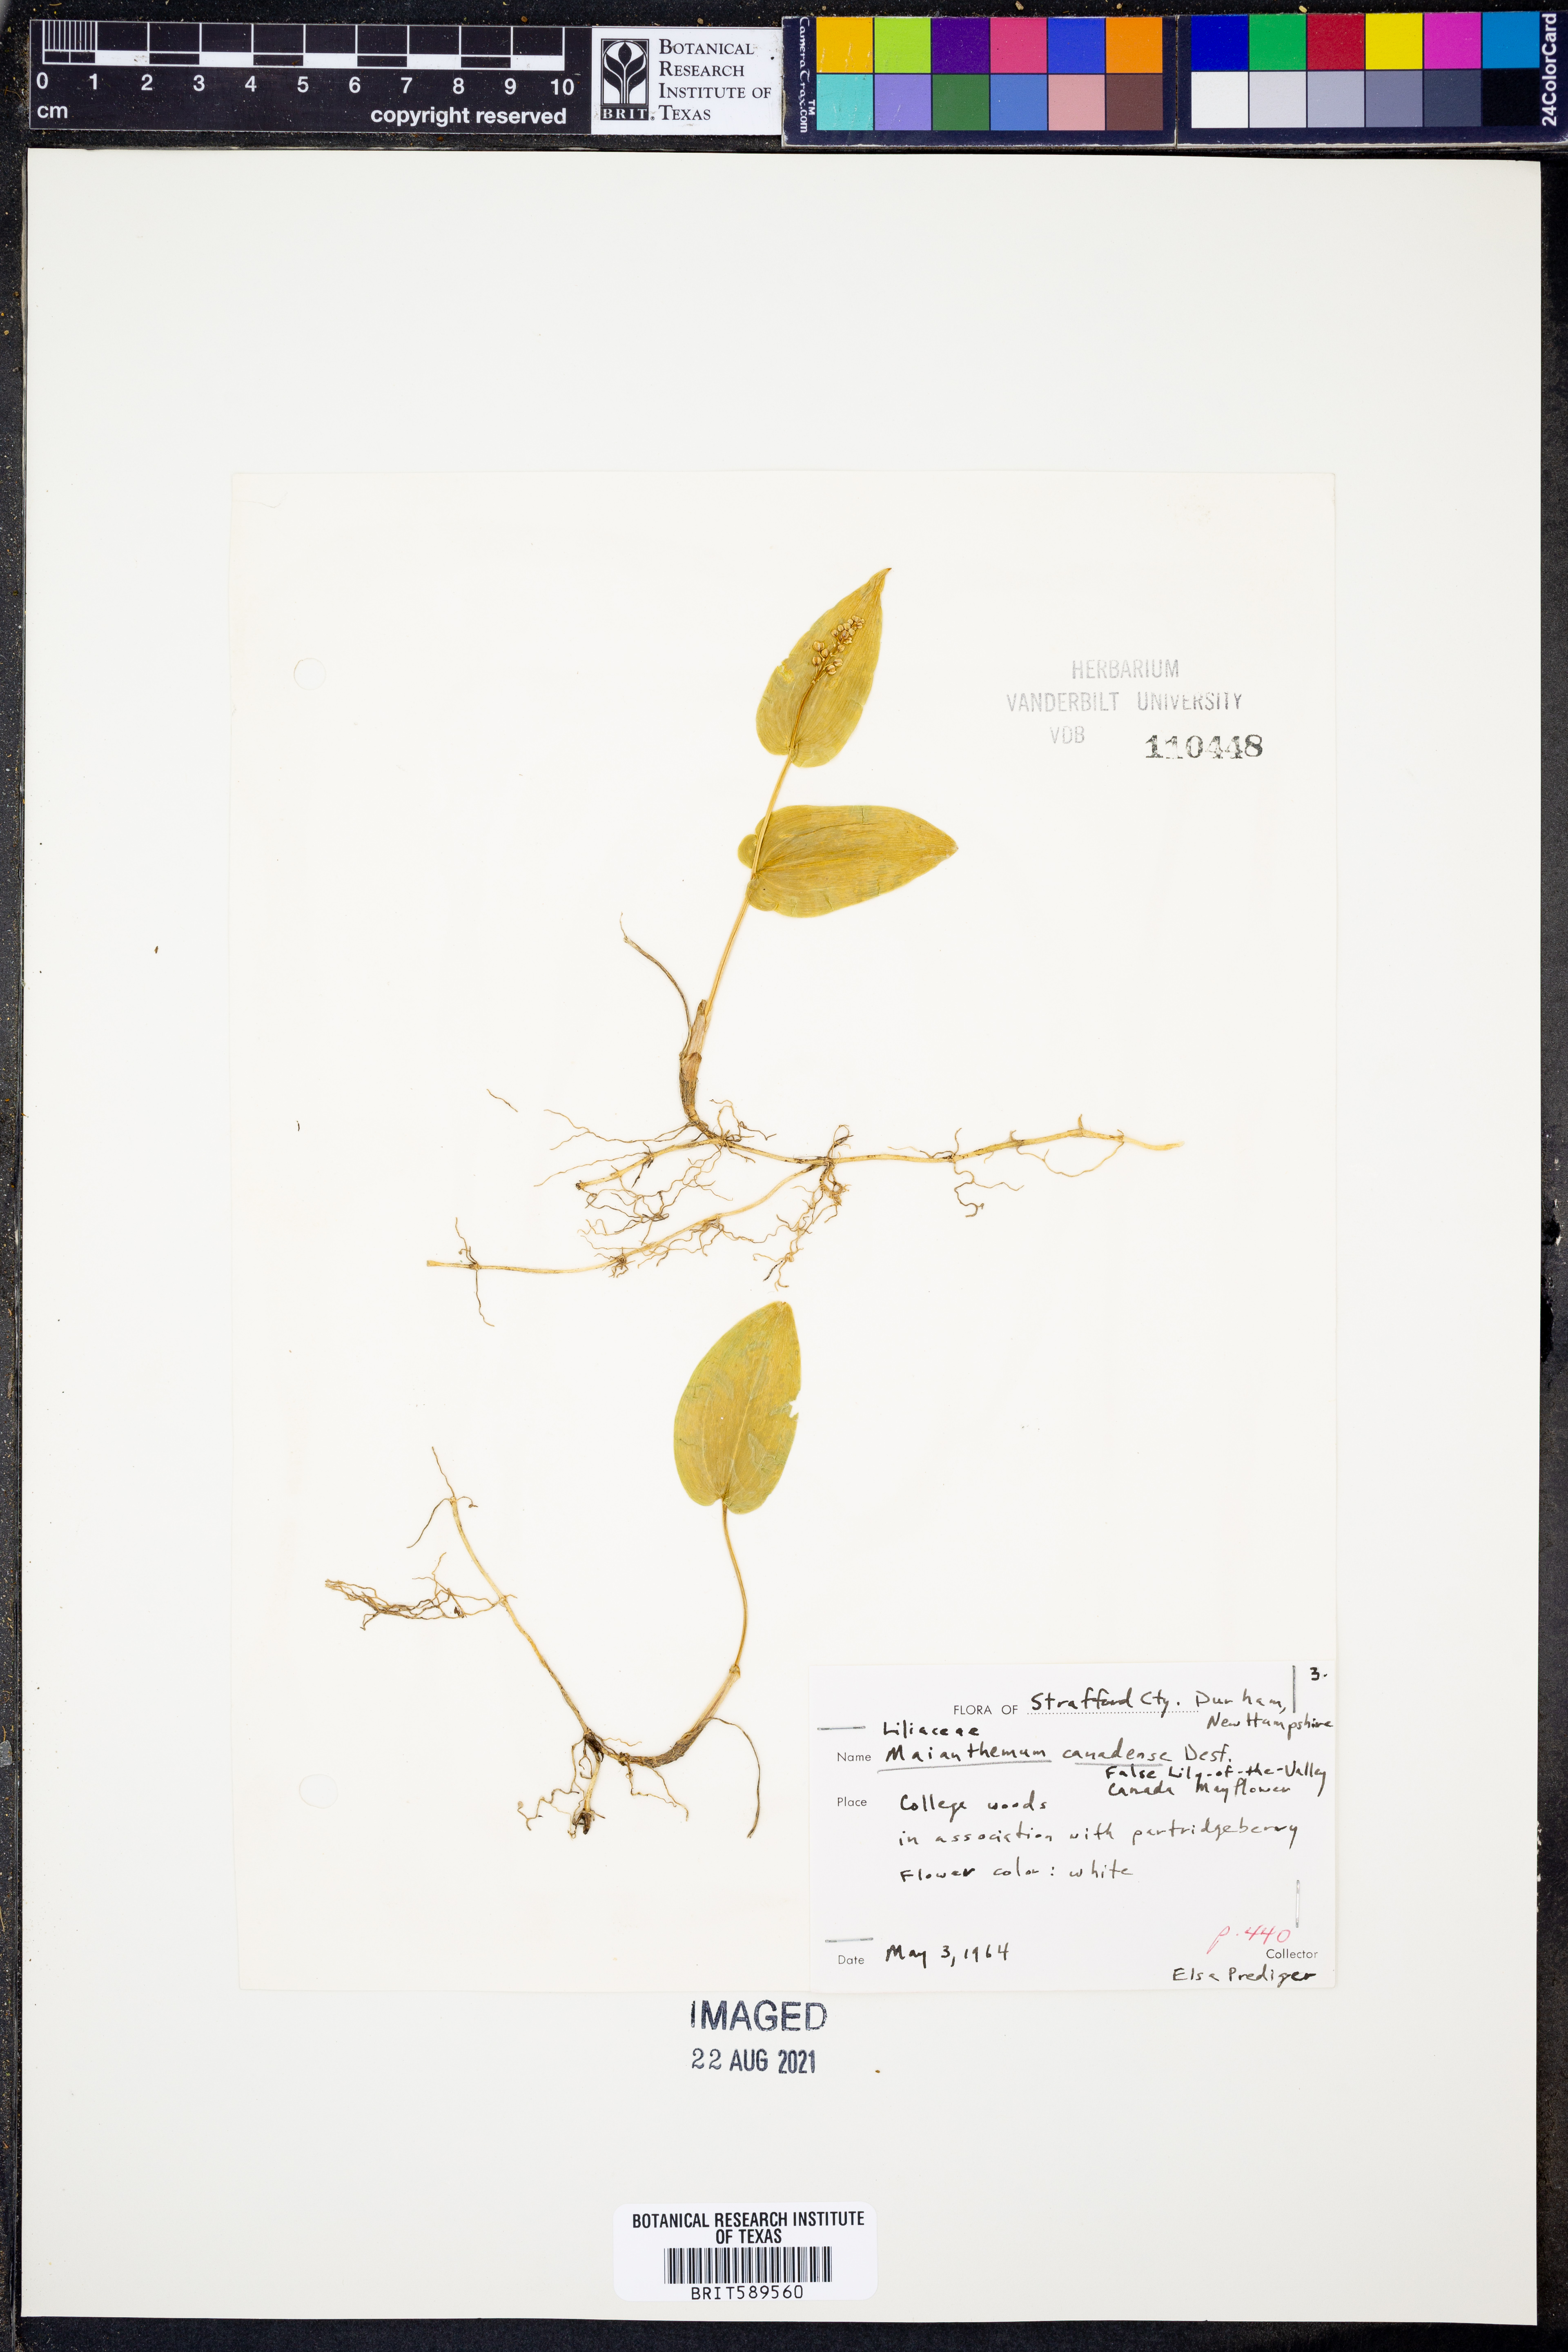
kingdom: Plantae
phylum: Tracheophyta
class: Liliopsida
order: Asparagales
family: Asparagaceae
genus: Maianthemum
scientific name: Maianthemum canadense
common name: False lily-of-the-valley
